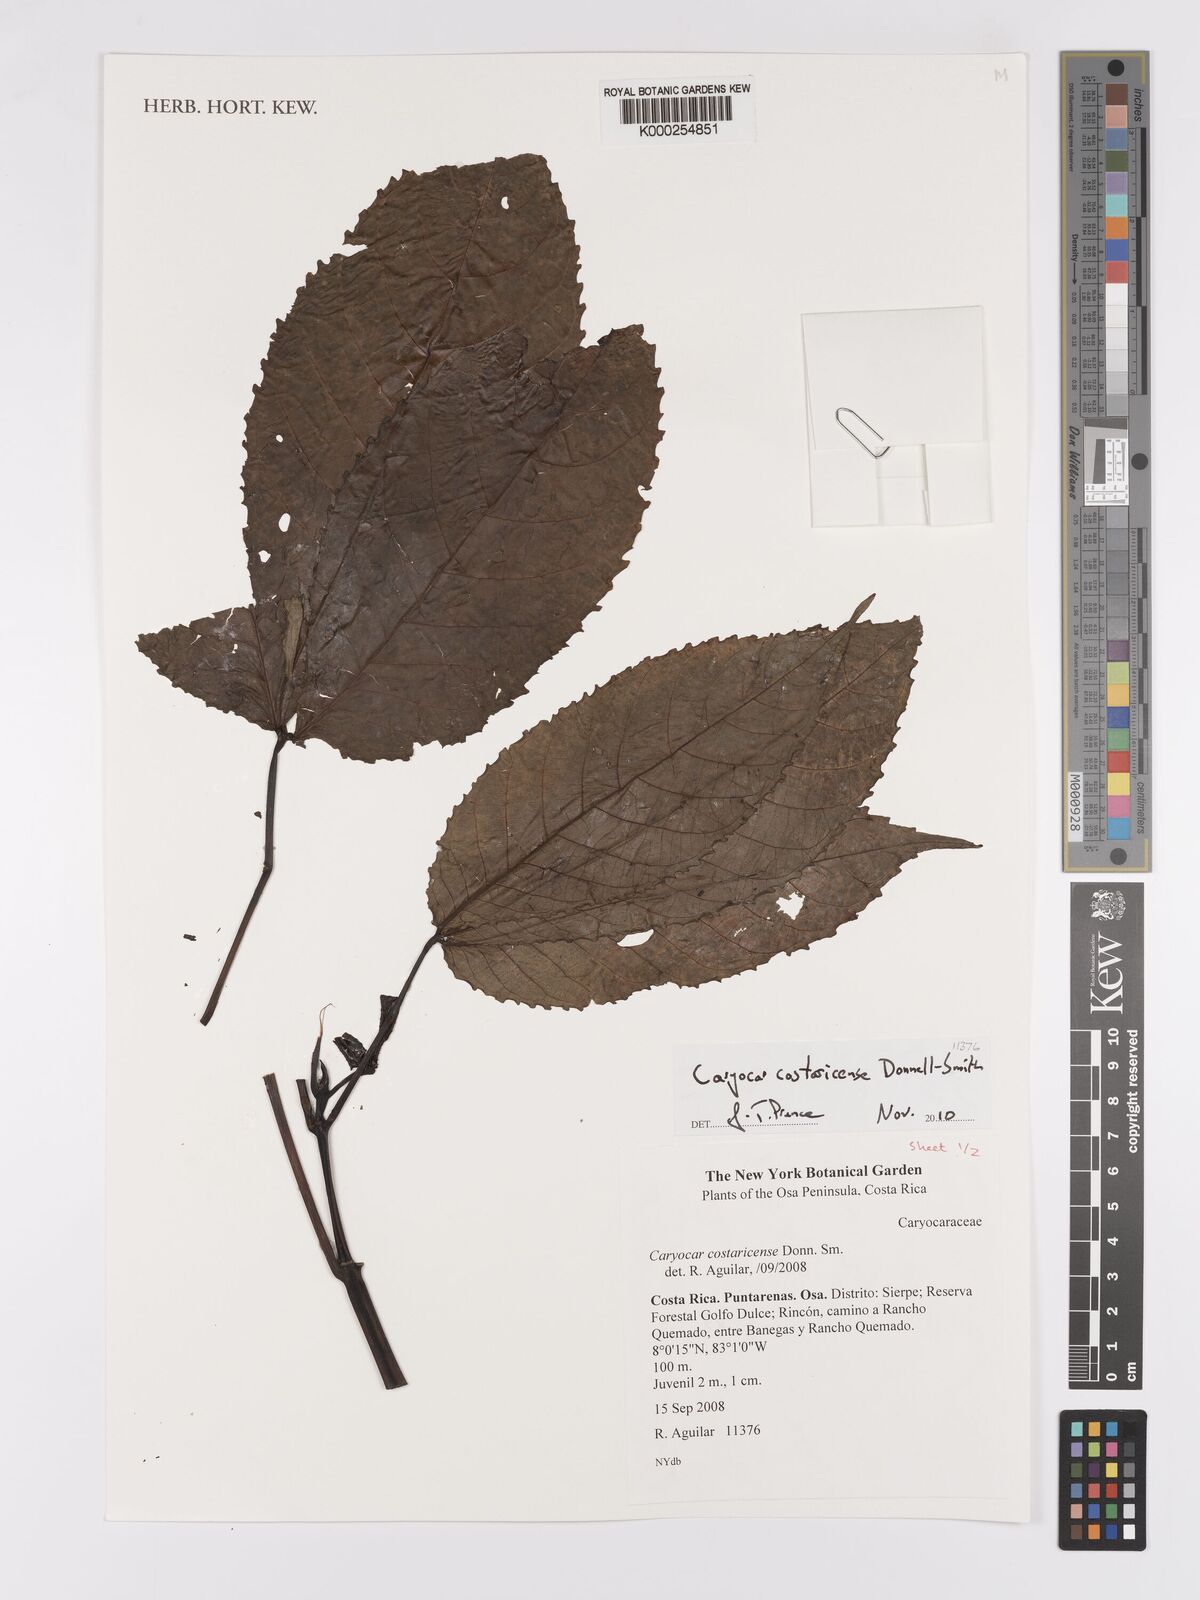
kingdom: Plantae
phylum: Tracheophyta
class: Magnoliopsida
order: Malpighiales
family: Caryocaraceae
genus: Caryocar
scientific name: Caryocar costaricense
